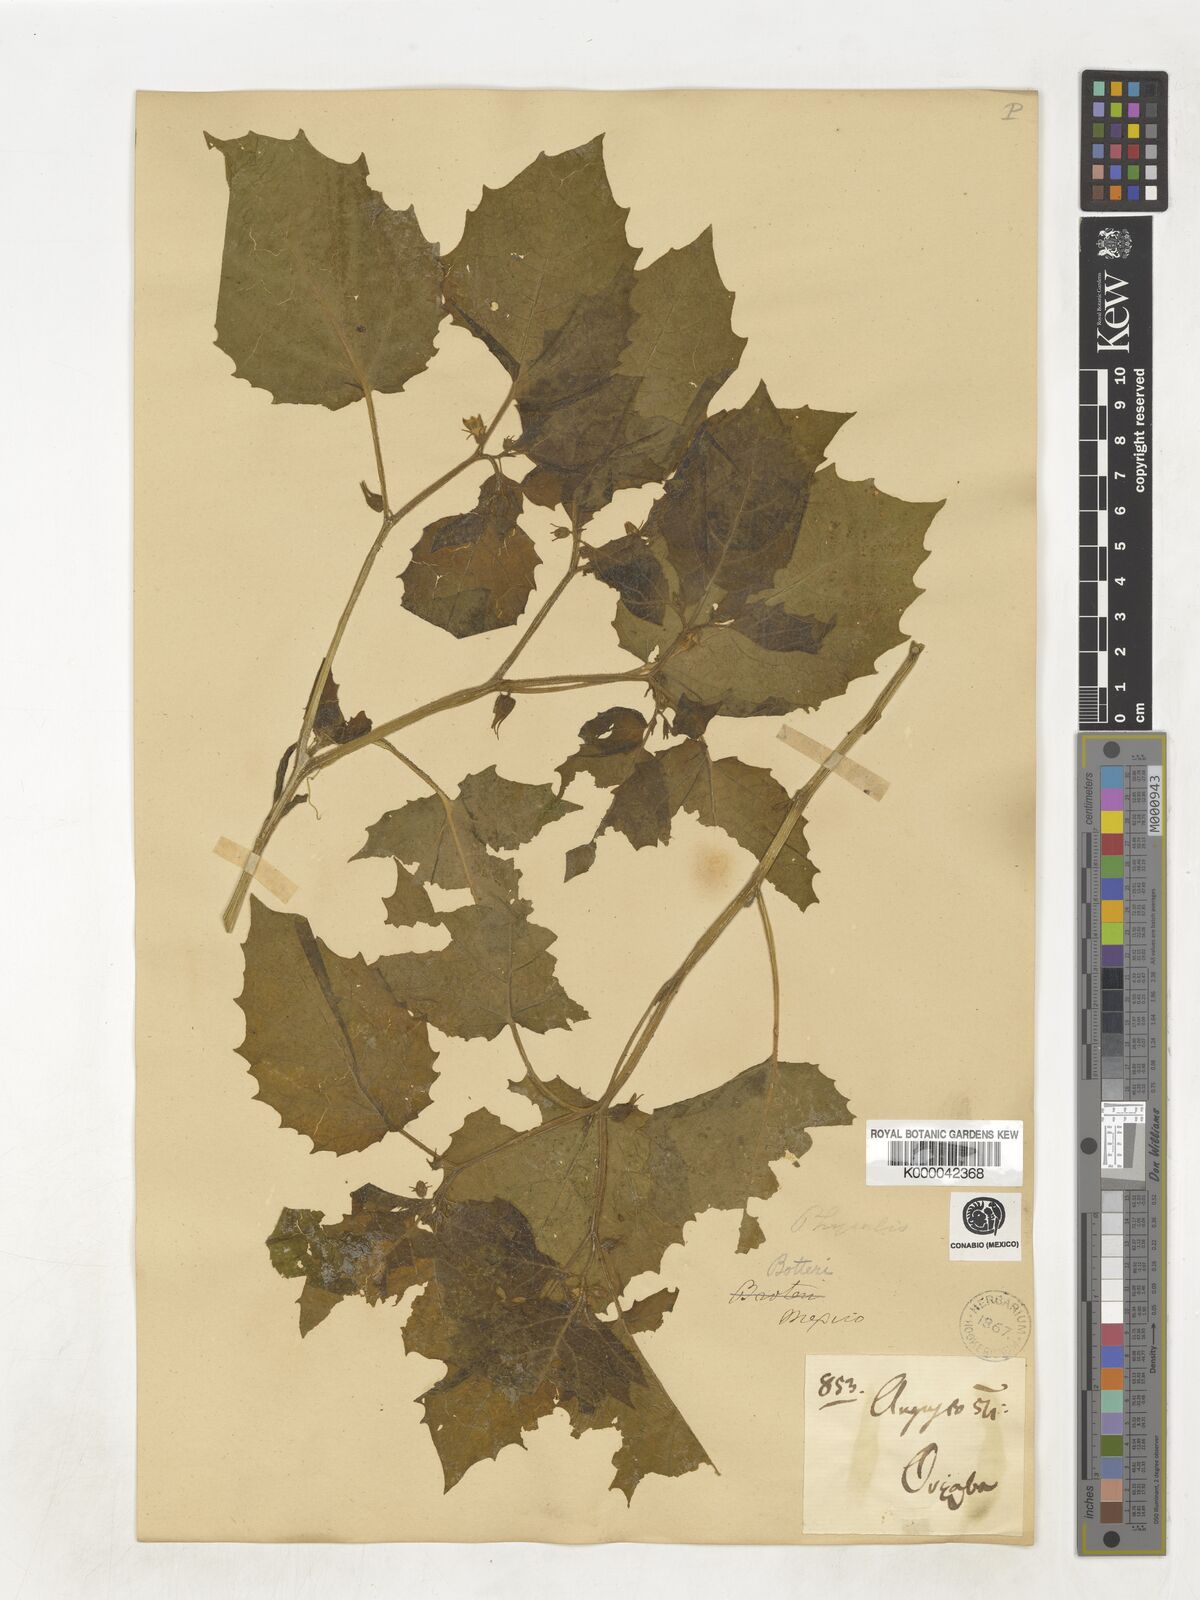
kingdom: Plantae
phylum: Tracheophyta
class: Magnoliopsida
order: Solanales
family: Solanaceae
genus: Physalis
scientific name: Physalis
